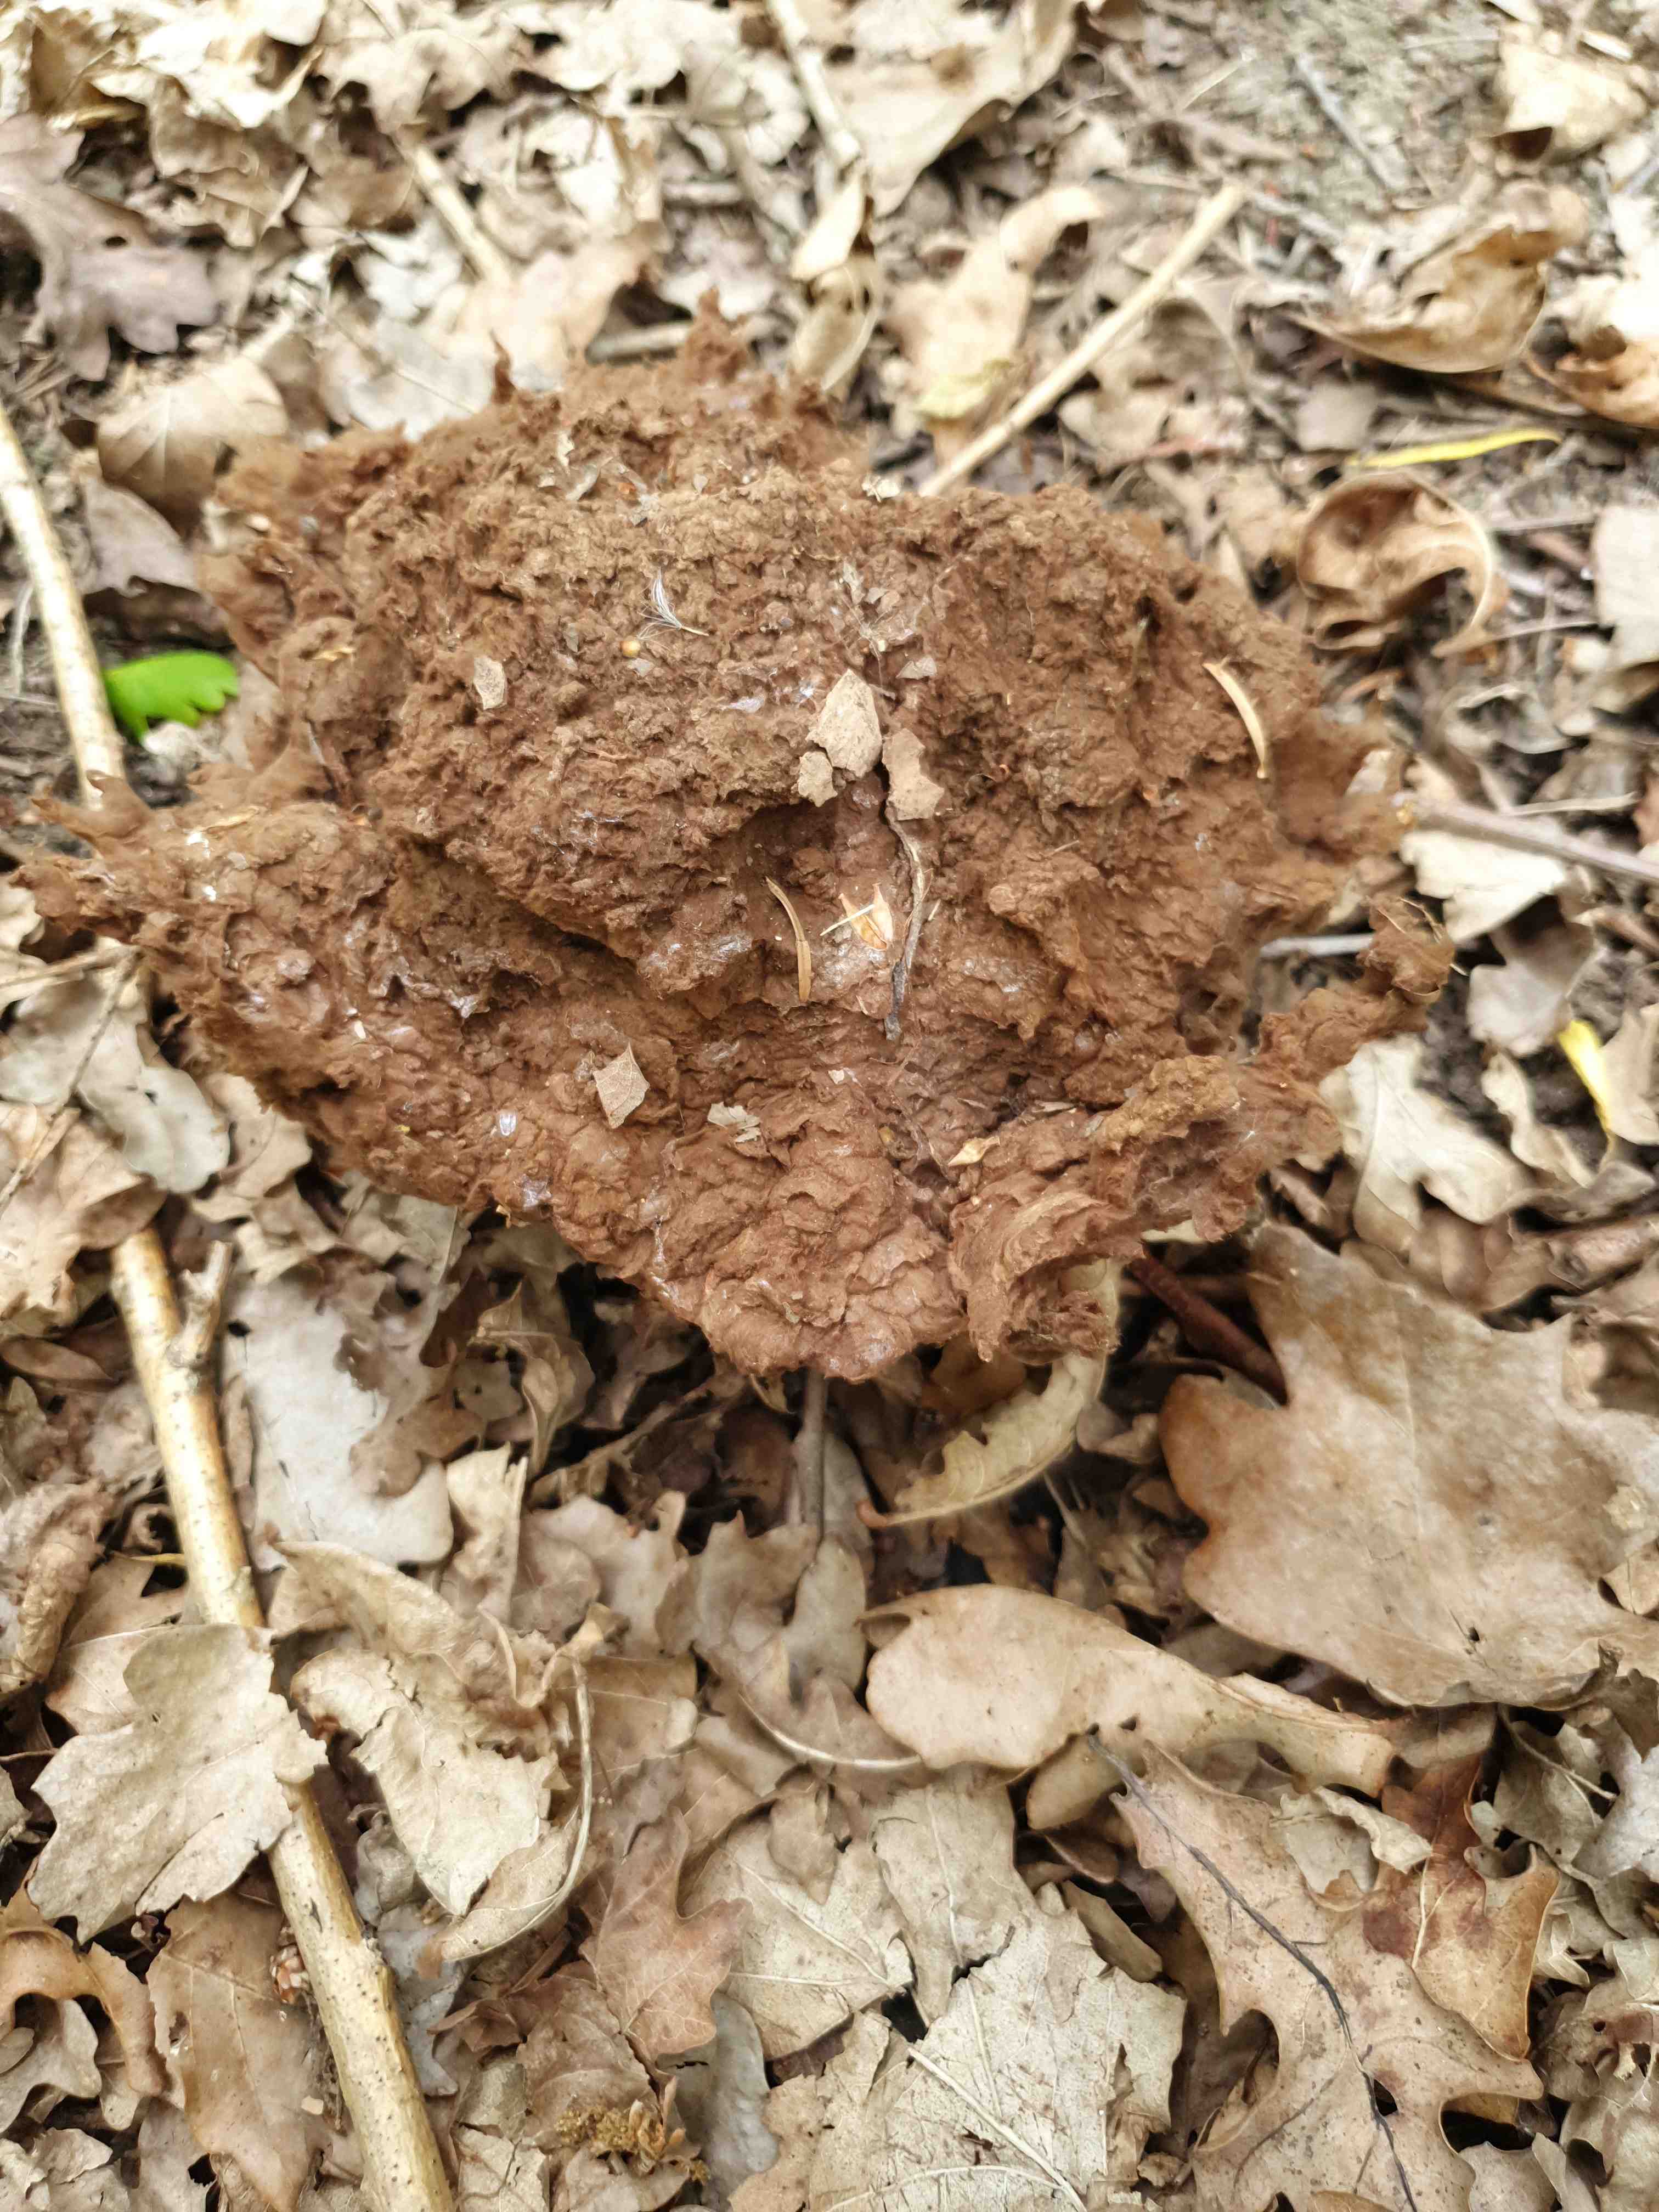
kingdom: Fungi
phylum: Basidiomycota
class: Agaricomycetes
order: Agaricales
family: Lycoperdaceae
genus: Calvatia
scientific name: Calvatia gigantea
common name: kæmpestøvbold
